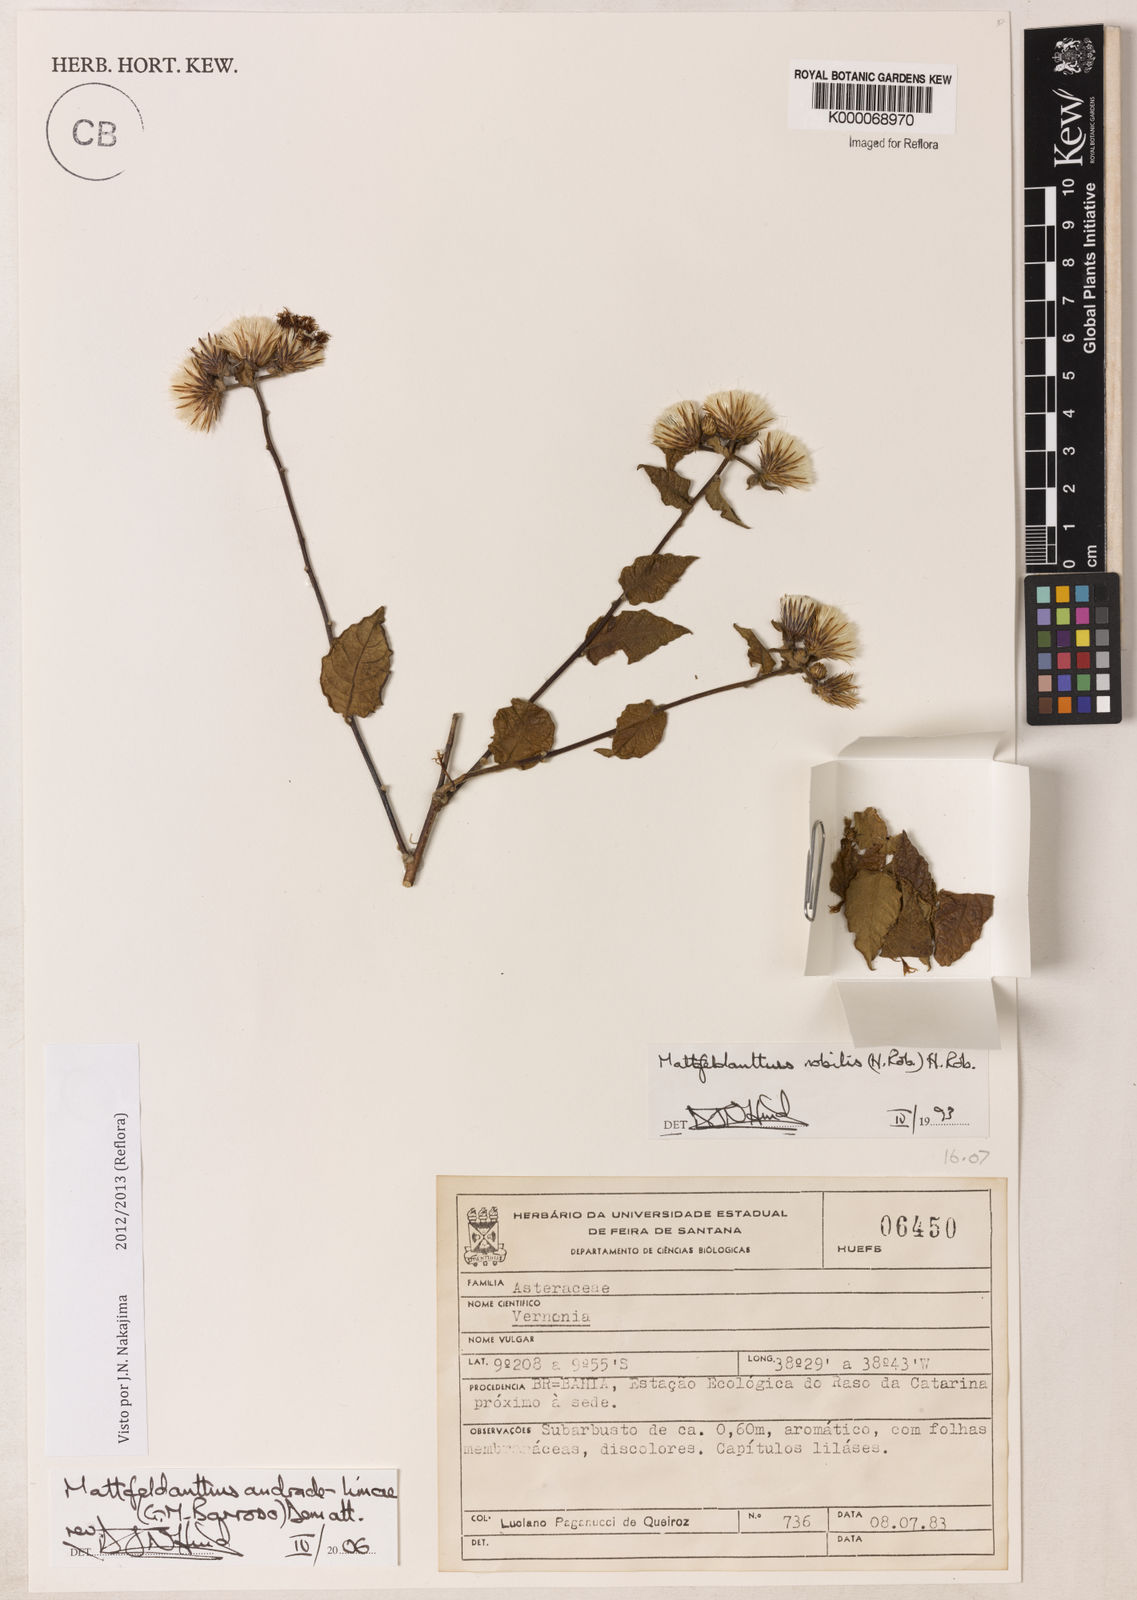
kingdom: Plantae
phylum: Tracheophyta
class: Magnoliopsida
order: Asterales
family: Asteraceae
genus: Mattfeldanthus
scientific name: Mattfeldanthus andrade-limae
